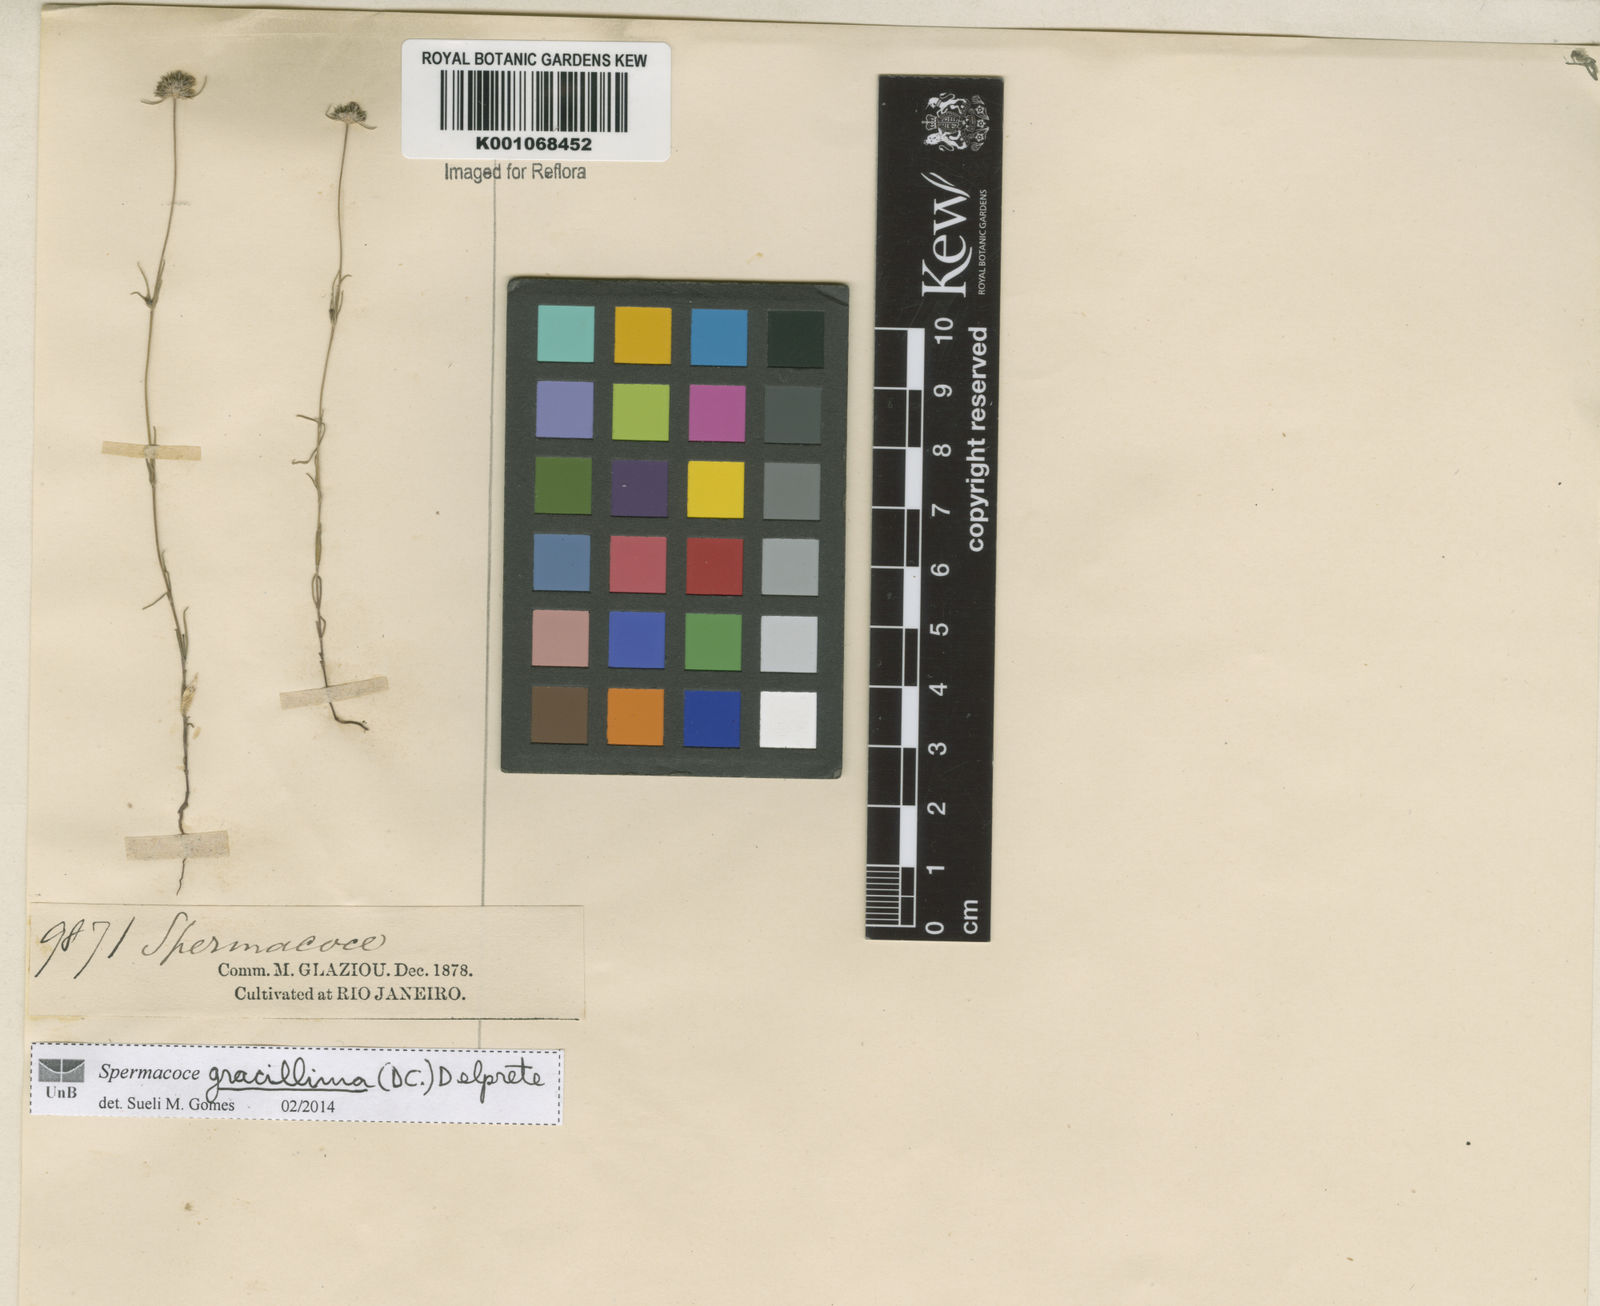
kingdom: Plantae
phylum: Tracheophyta
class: Magnoliopsida
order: Gentianales
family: Rubiaceae
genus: Spermacoce
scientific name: Spermacoce gracillima
